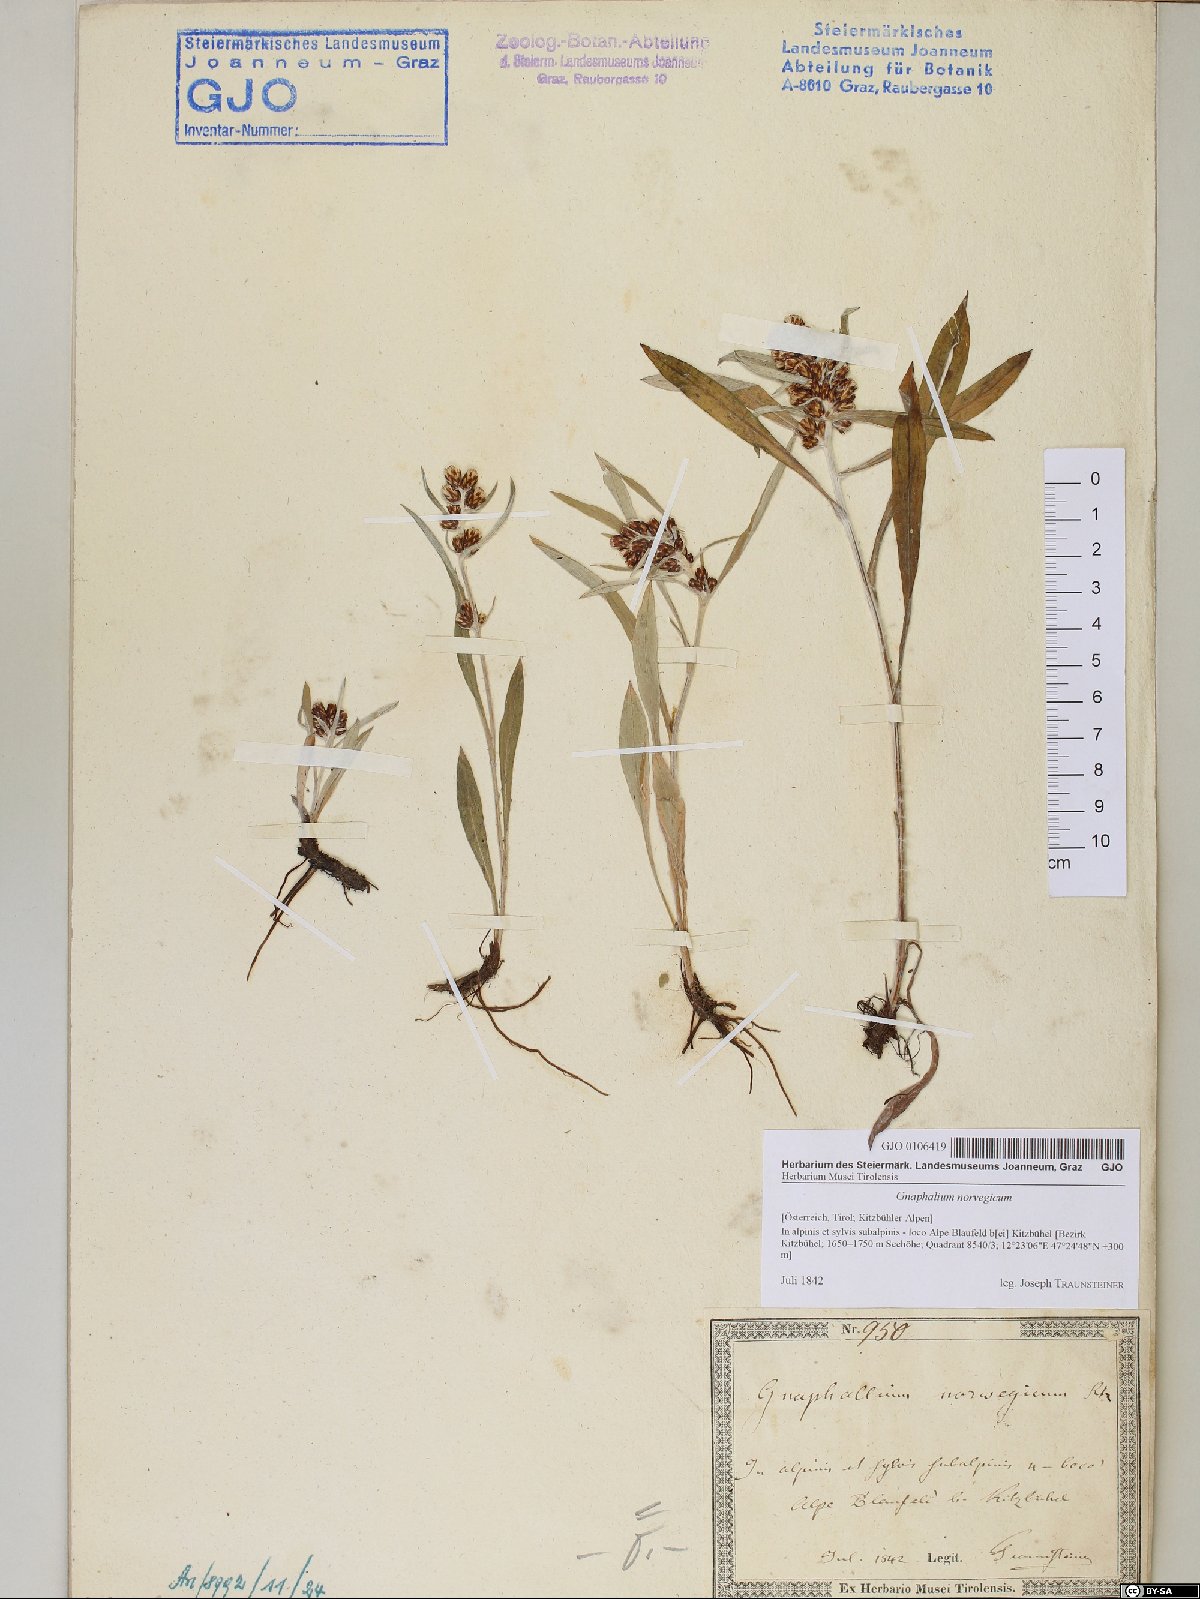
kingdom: Plantae
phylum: Tracheophyta
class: Magnoliopsida
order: Asterales
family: Asteraceae
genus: Omalotheca
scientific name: Omalotheca norvegica
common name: Norwegian arctic-cudweed
